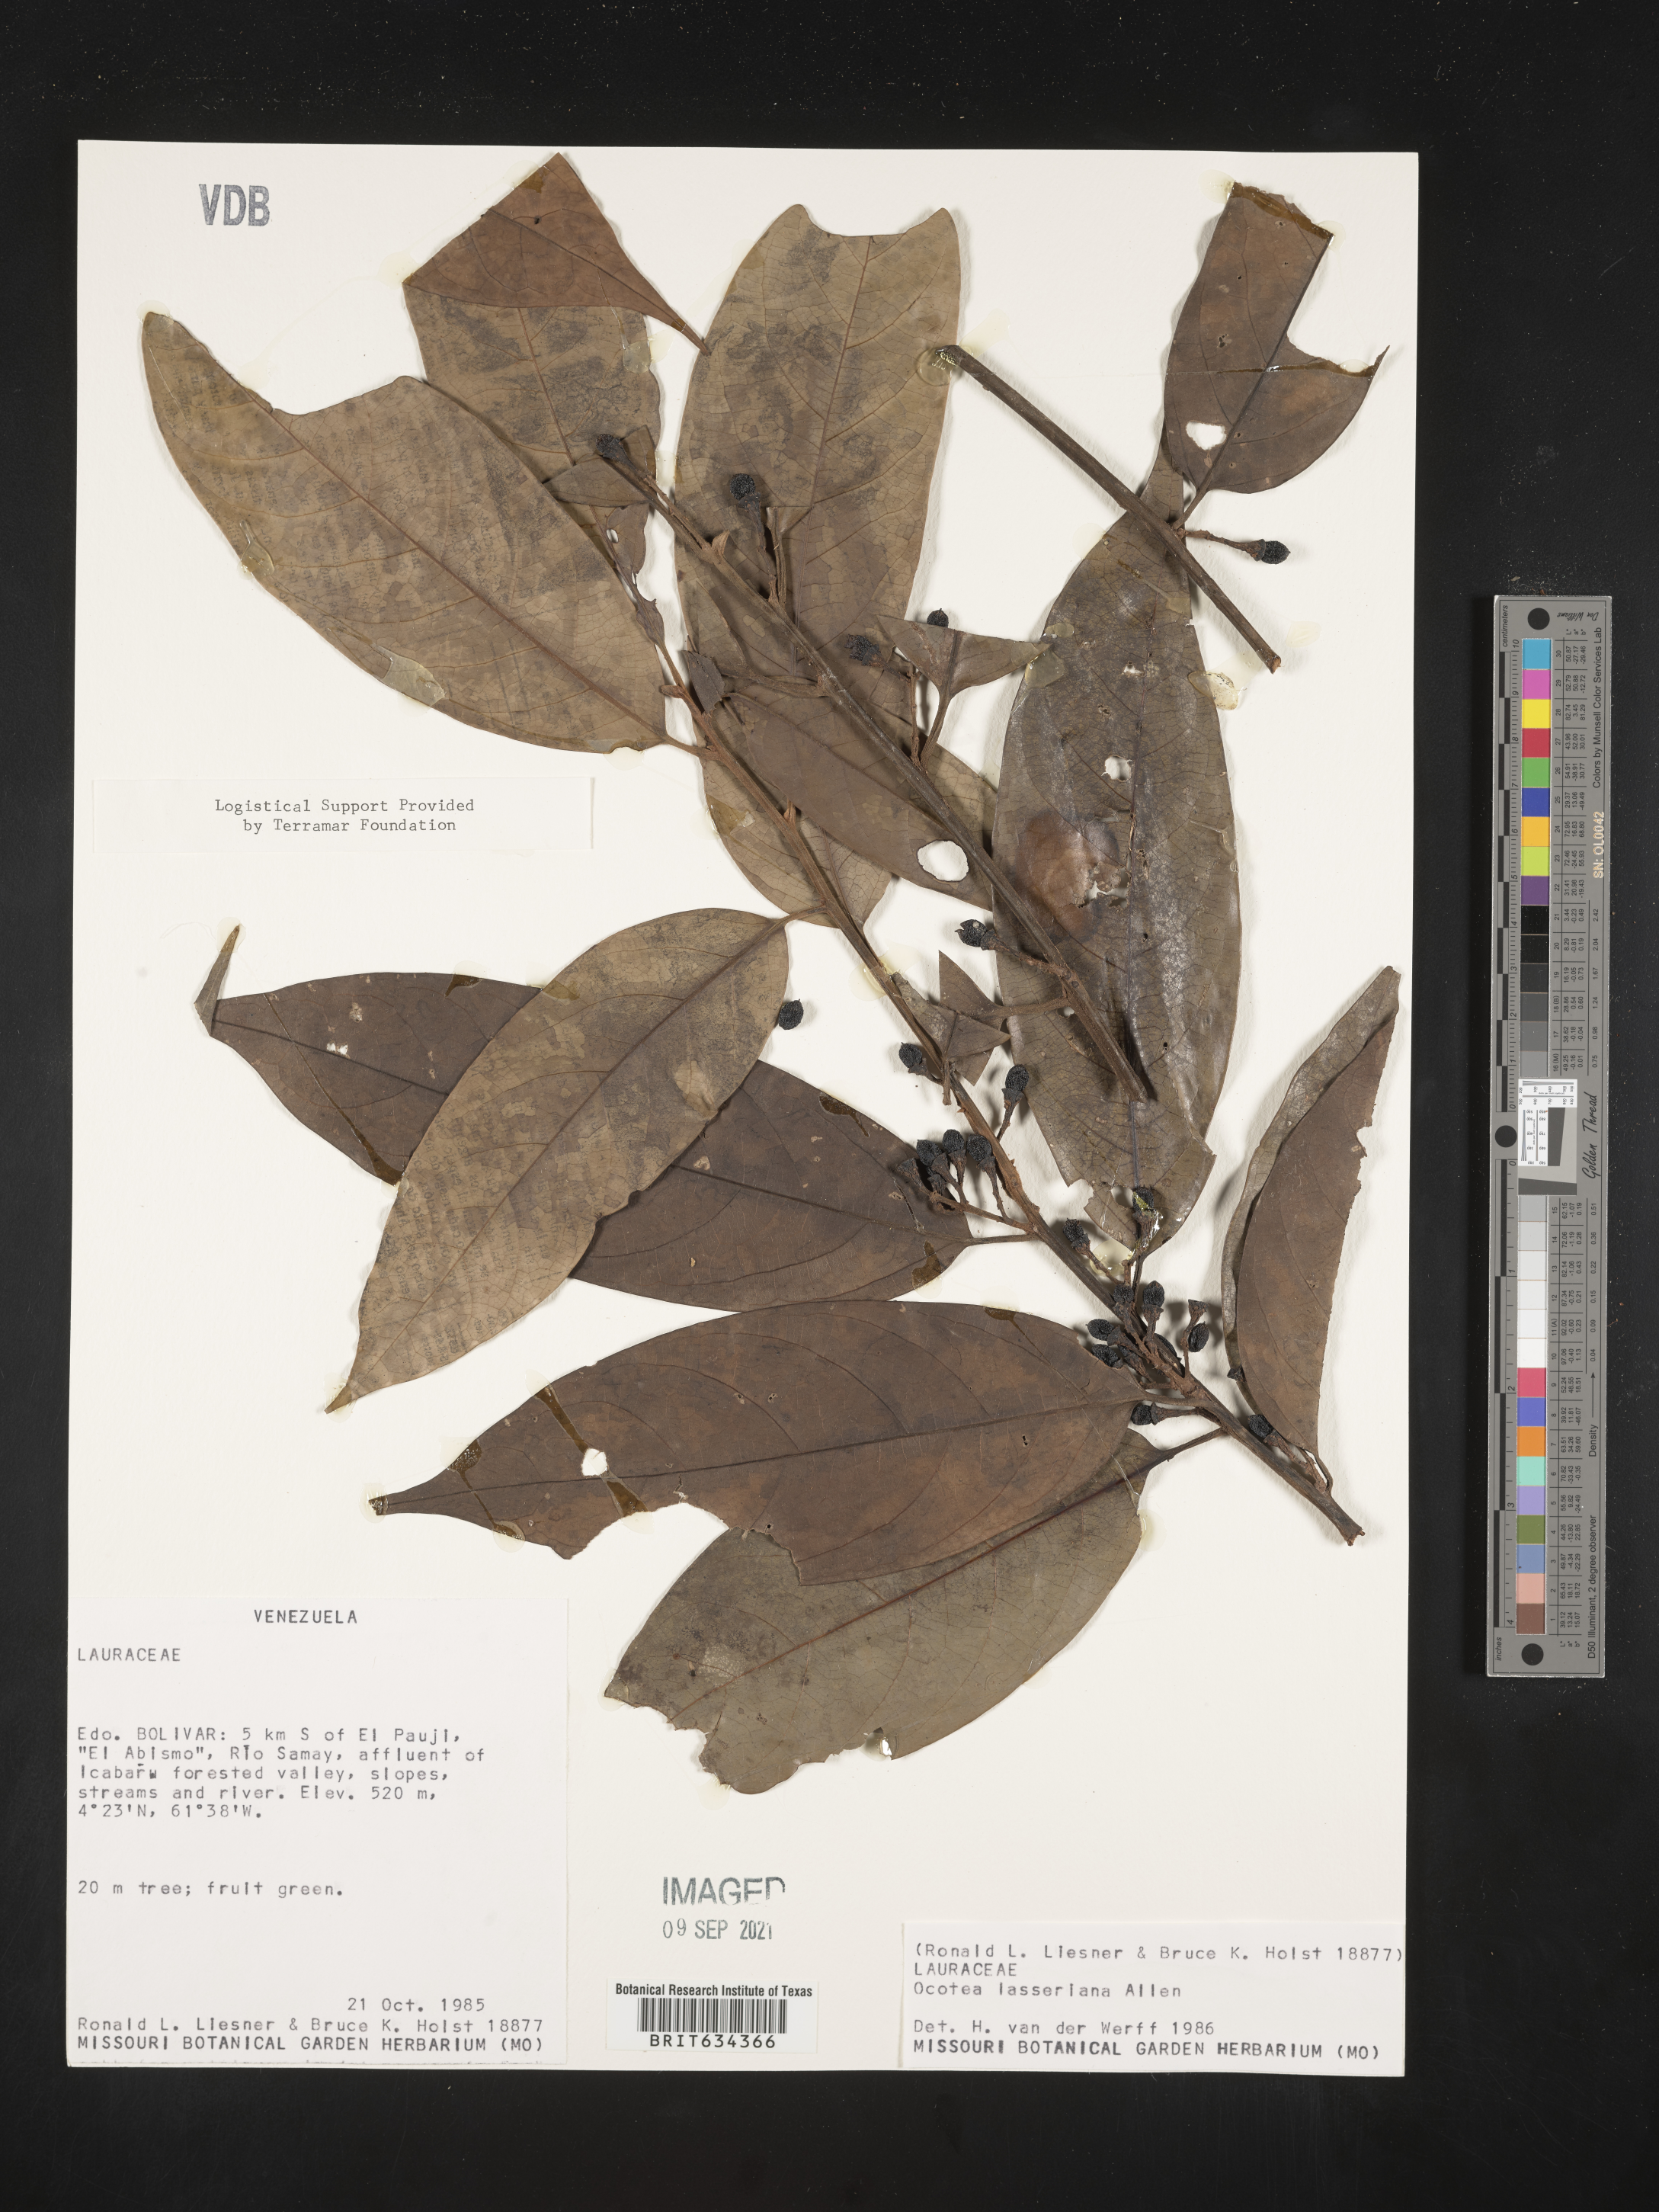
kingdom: Plantae
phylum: Tracheophyta
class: Magnoliopsida
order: Laurales
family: Lauraceae
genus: Ocotea
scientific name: Ocotea
